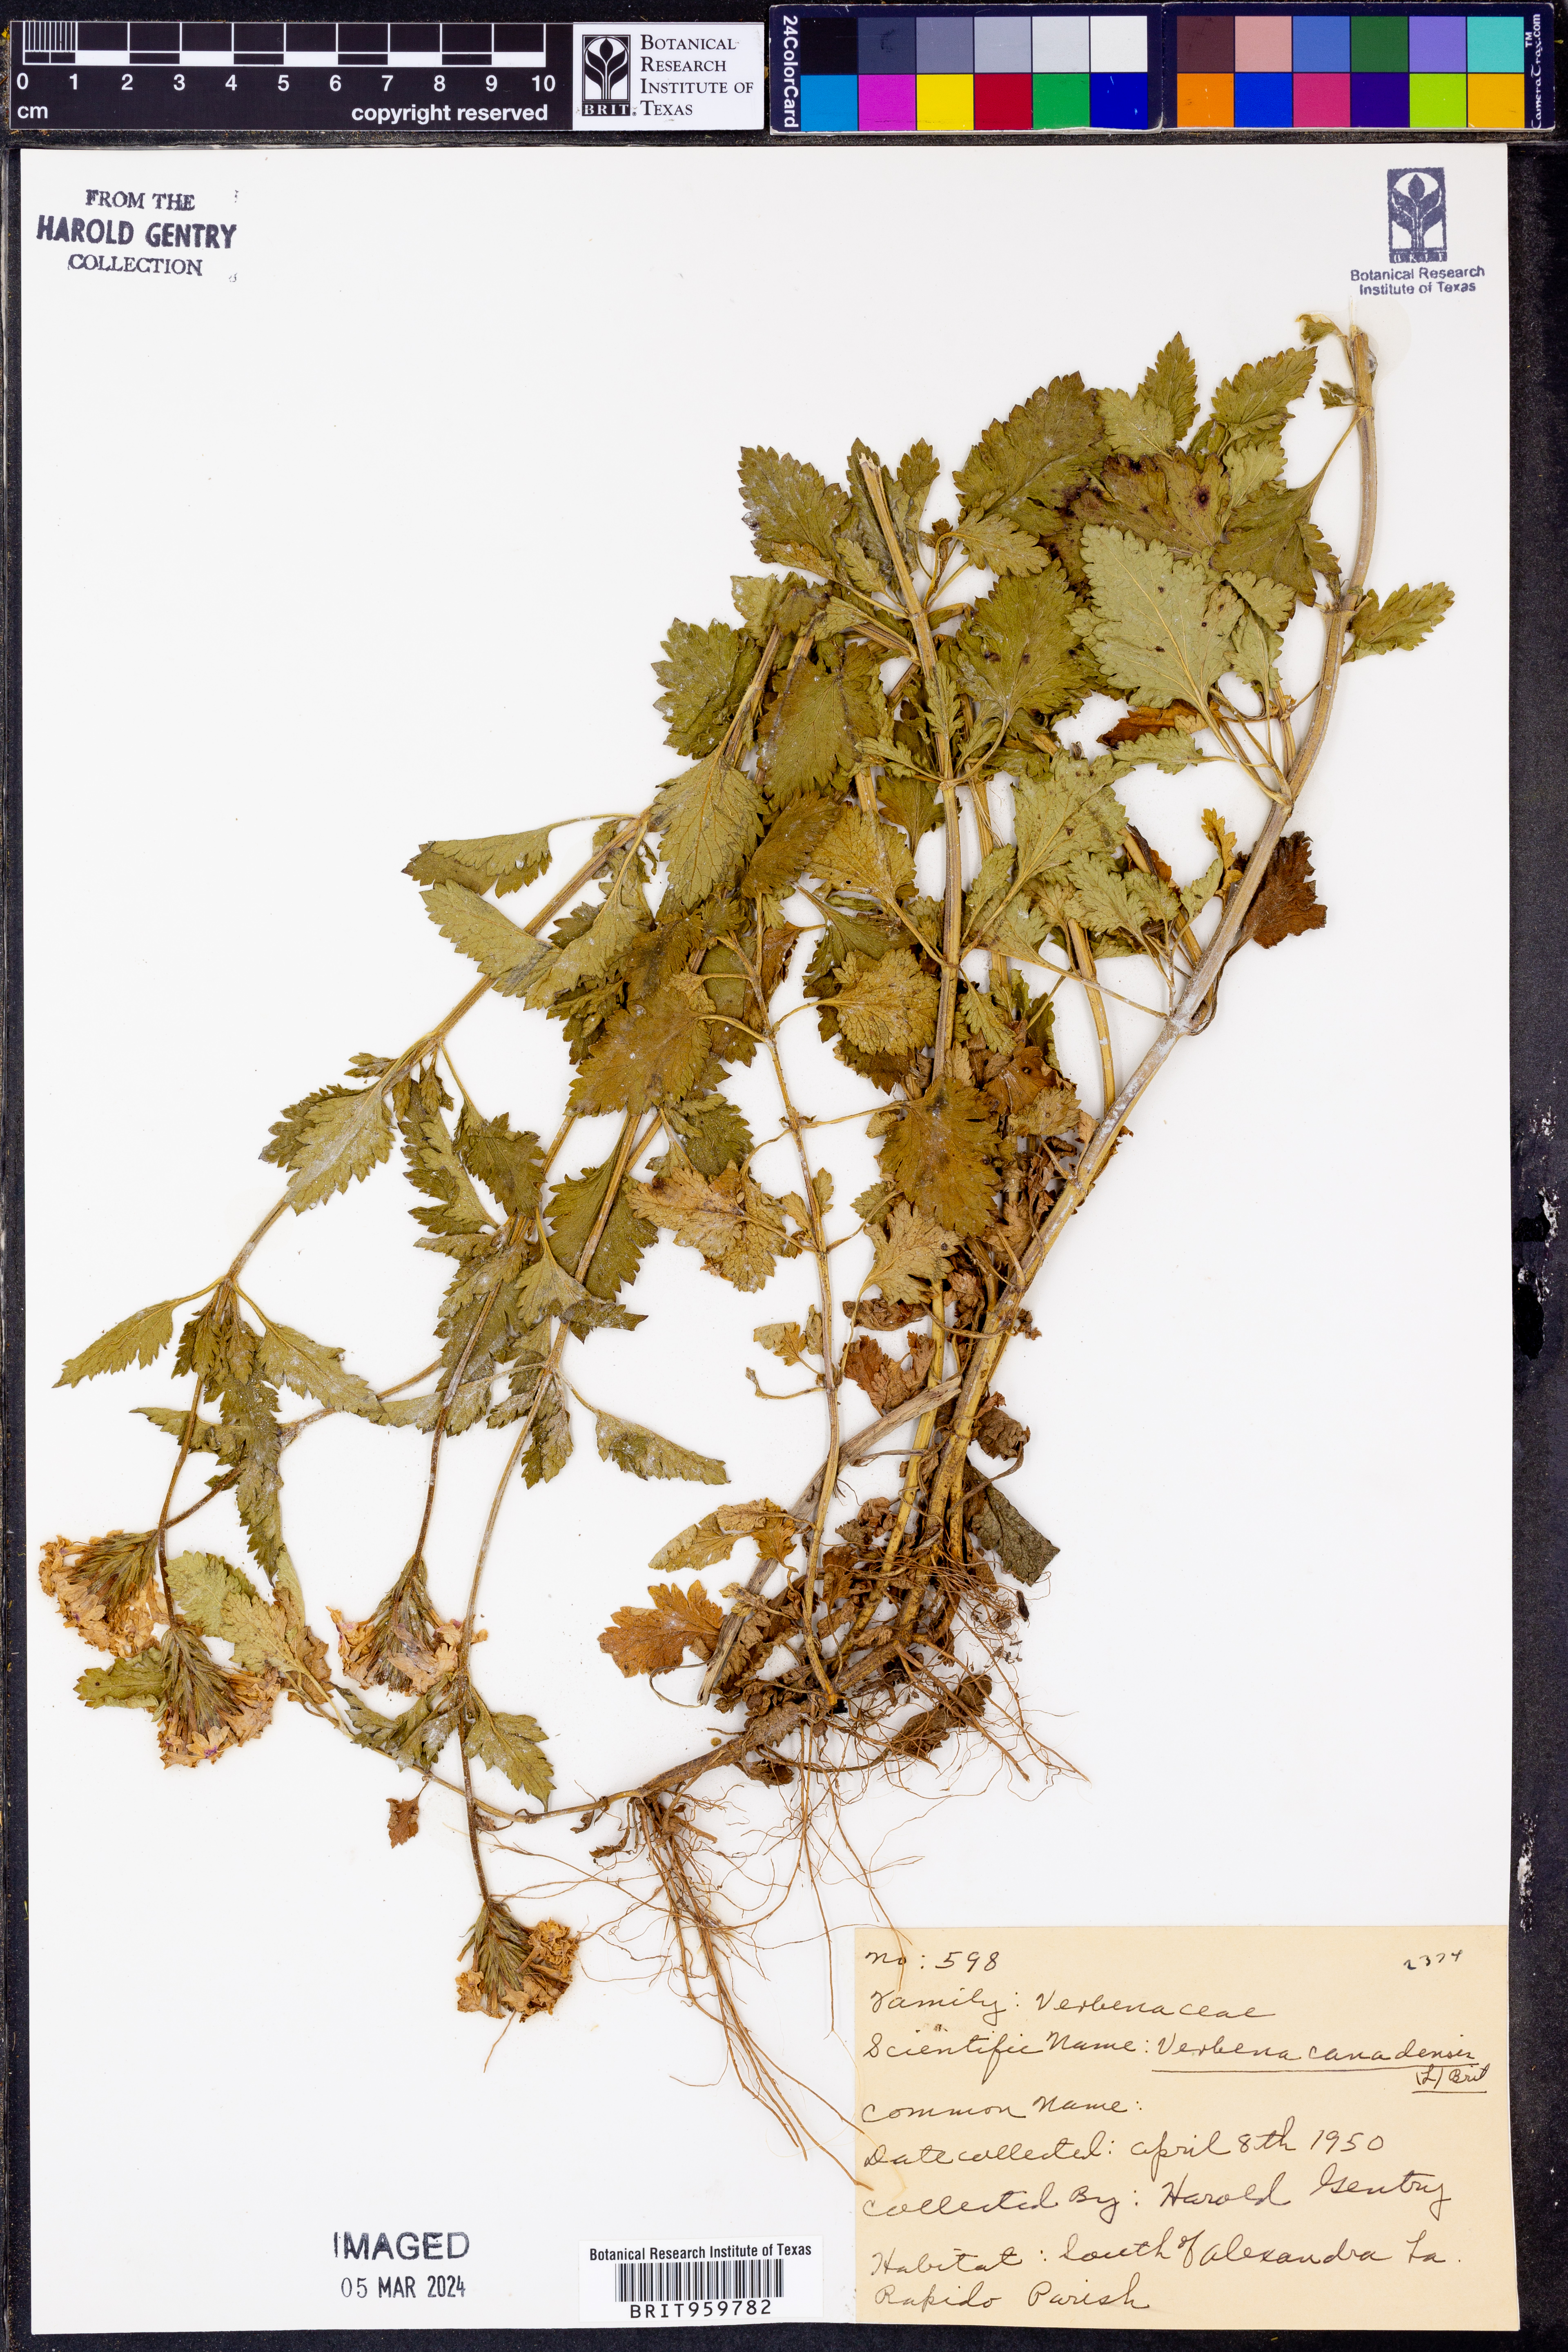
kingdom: Plantae
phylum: Tracheophyta
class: Magnoliopsida
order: Lamiales
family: Verbenaceae
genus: Verbena
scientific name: Verbena canadensis
